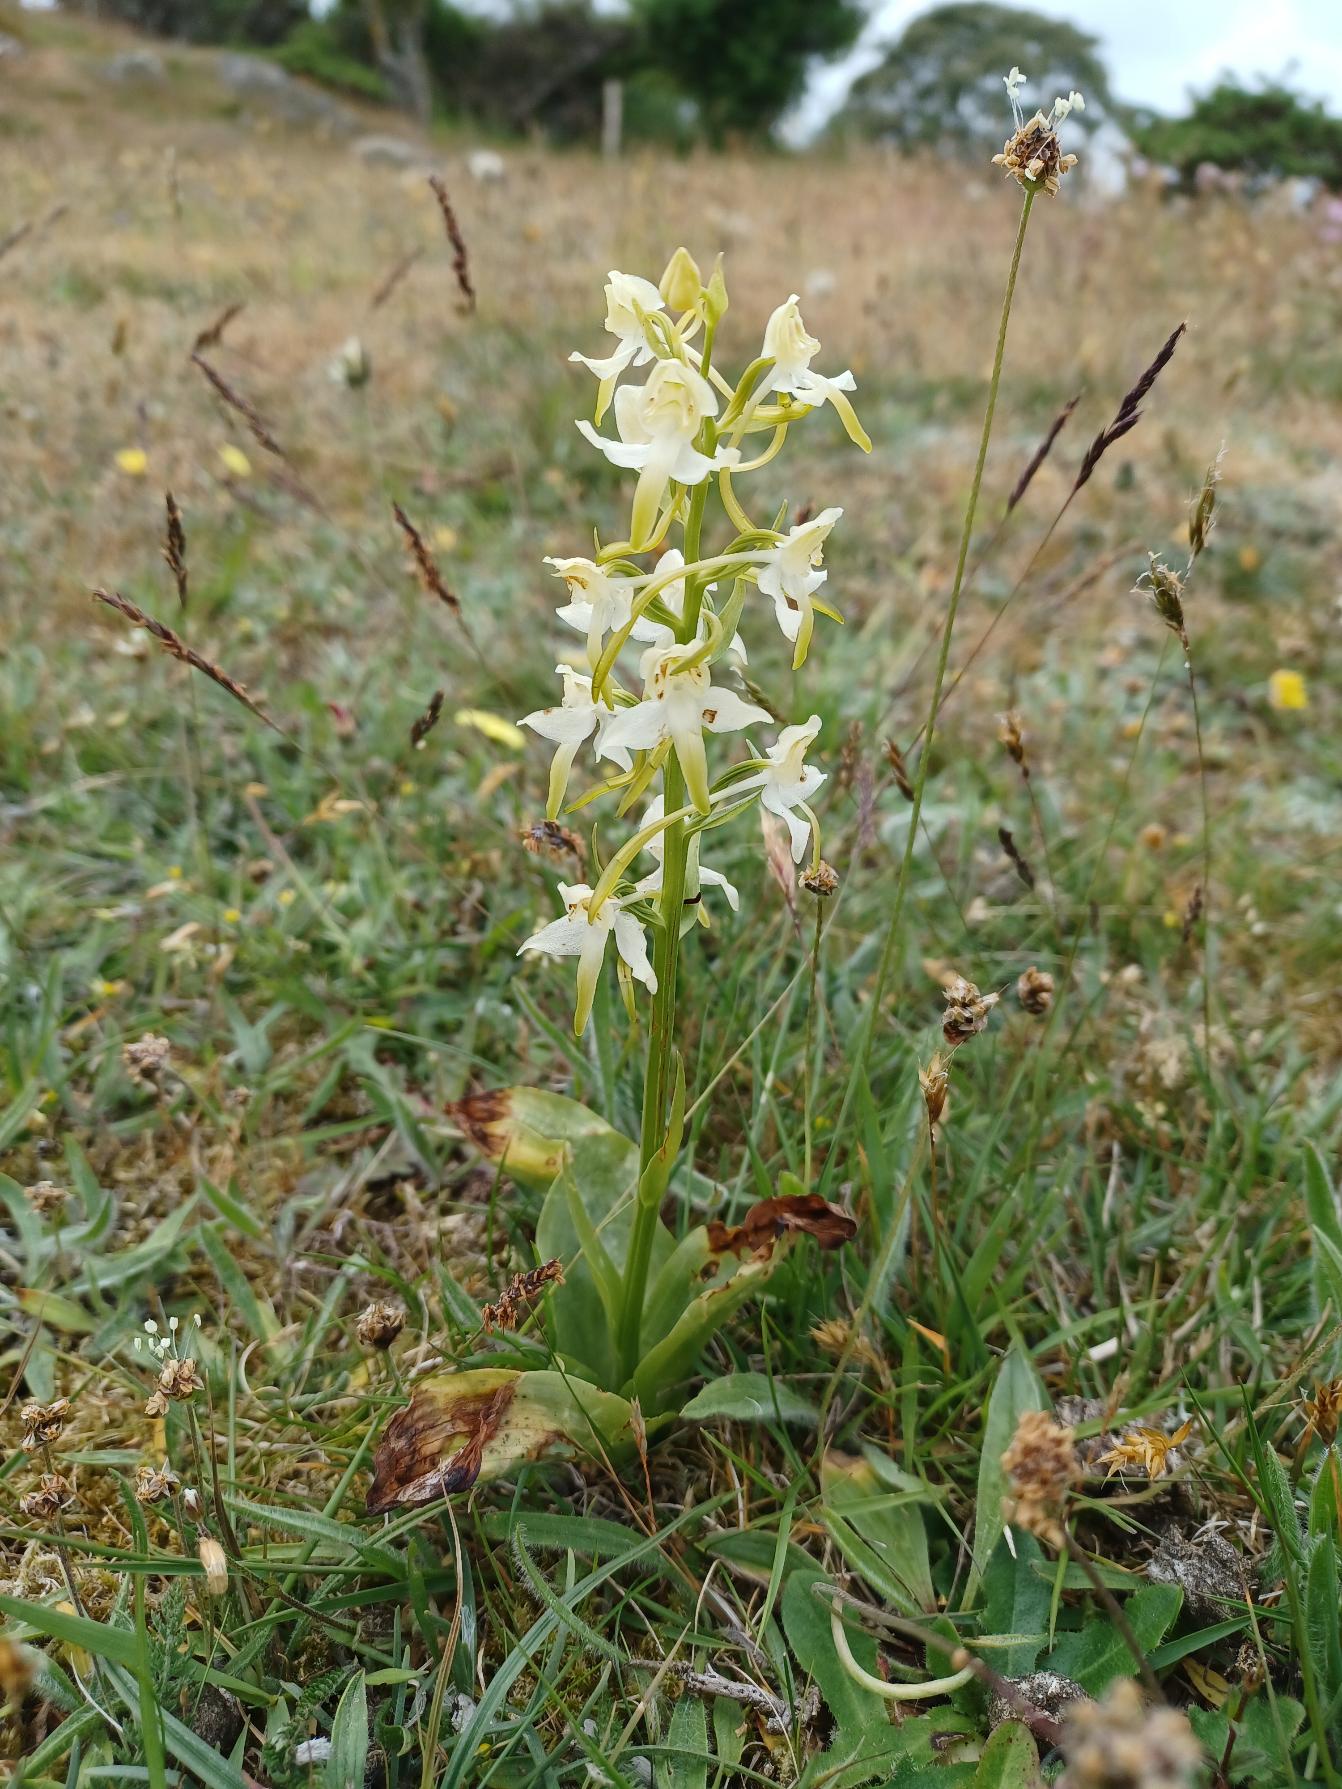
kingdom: Plantae
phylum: Tracheophyta
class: Liliopsida
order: Asparagales
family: Orchidaceae
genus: Platanthera
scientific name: Platanthera chlorantha
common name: Skov-gøgelilje
